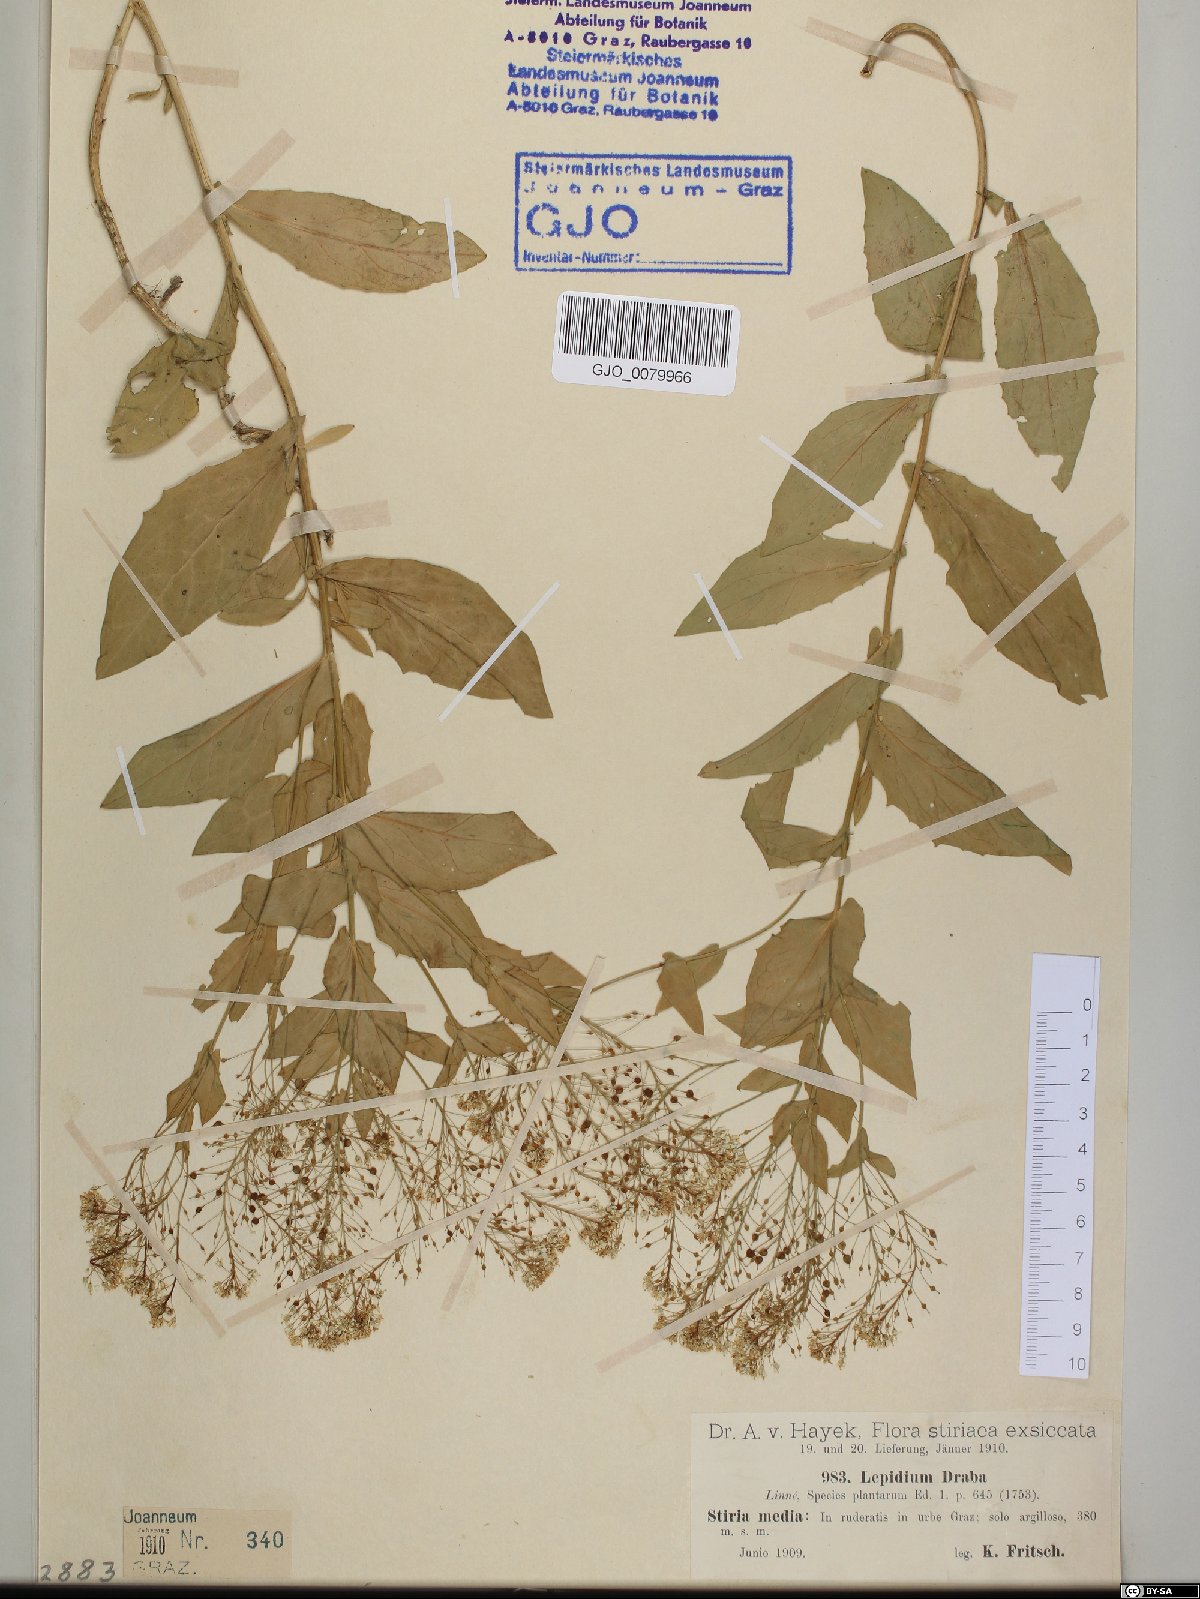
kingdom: Plantae
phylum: Tracheophyta
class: Magnoliopsida
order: Brassicales
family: Brassicaceae
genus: Lepidium
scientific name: Lepidium draba
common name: Hoary cress
